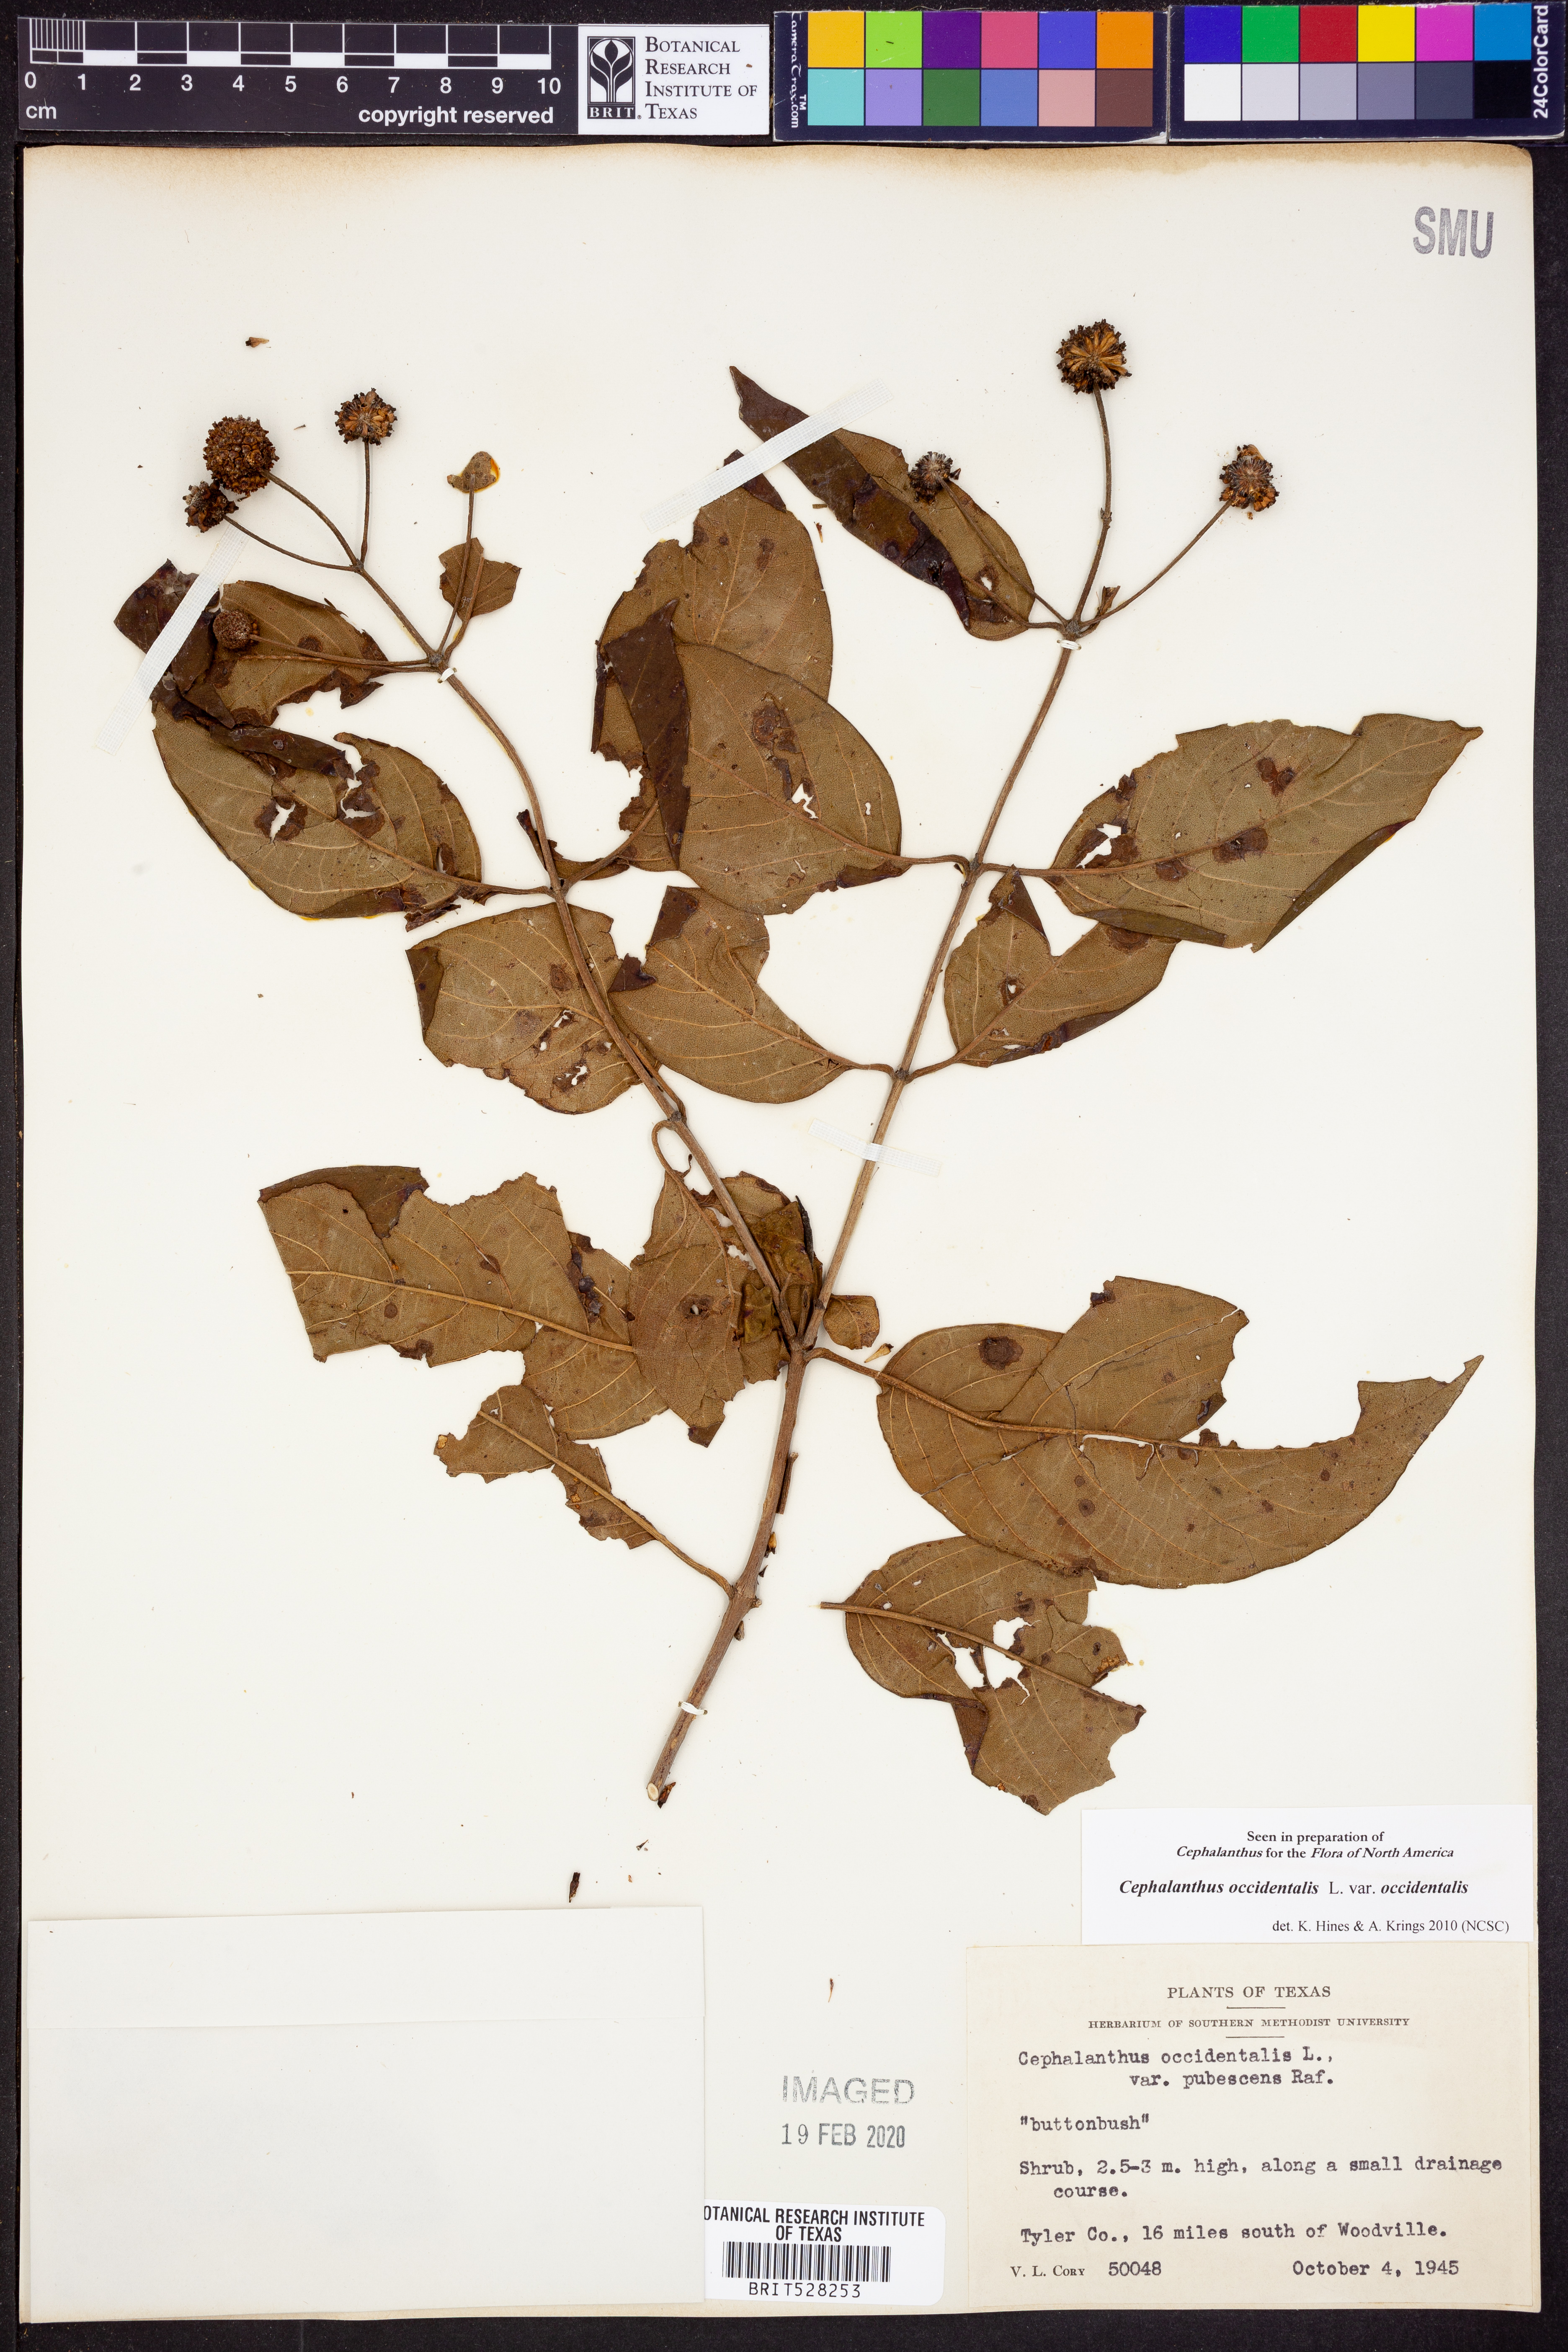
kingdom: Plantae
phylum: Tracheophyta
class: Magnoliopsida
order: Gentianales
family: Rubiaceae
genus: Cephalanthus
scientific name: Cephalanthus occidentalis
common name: Button-willow
